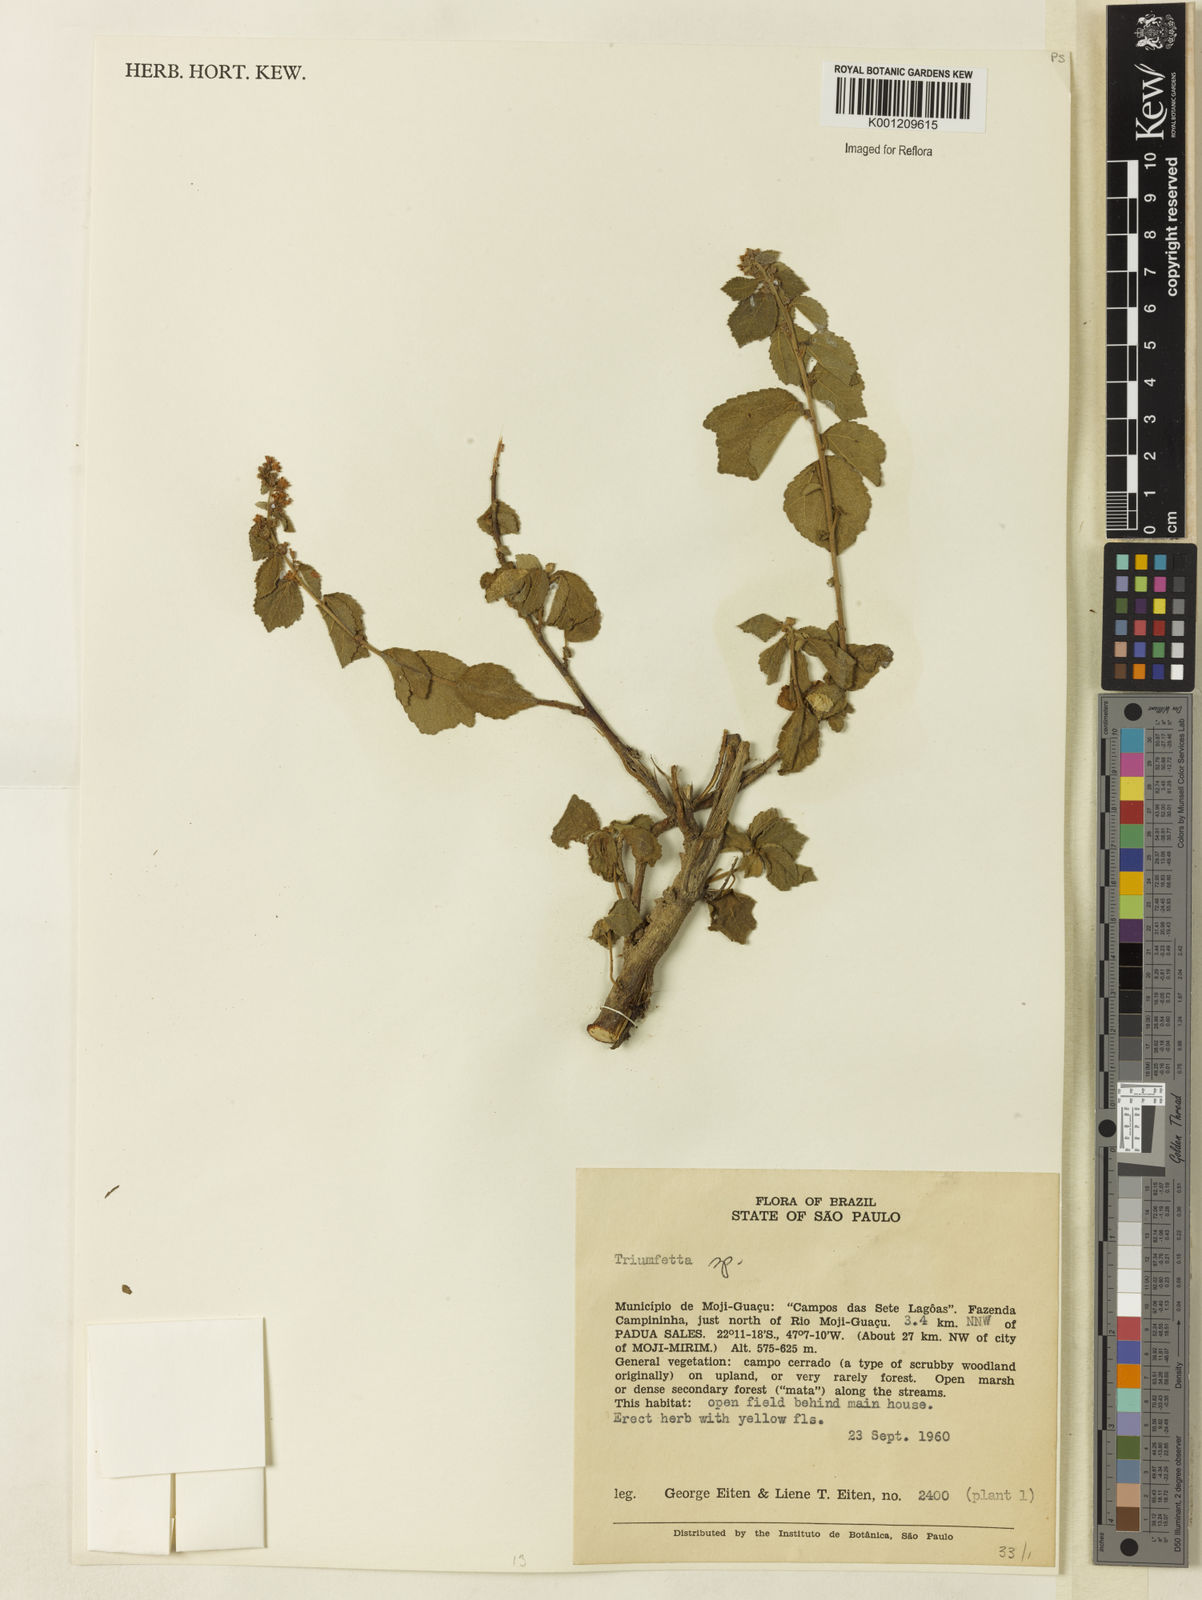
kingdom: Plantae
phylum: Tracheophyta
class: Magnoliopsida
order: Malvales
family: Malvaceae
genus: Triumfetta
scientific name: Triumfetta
